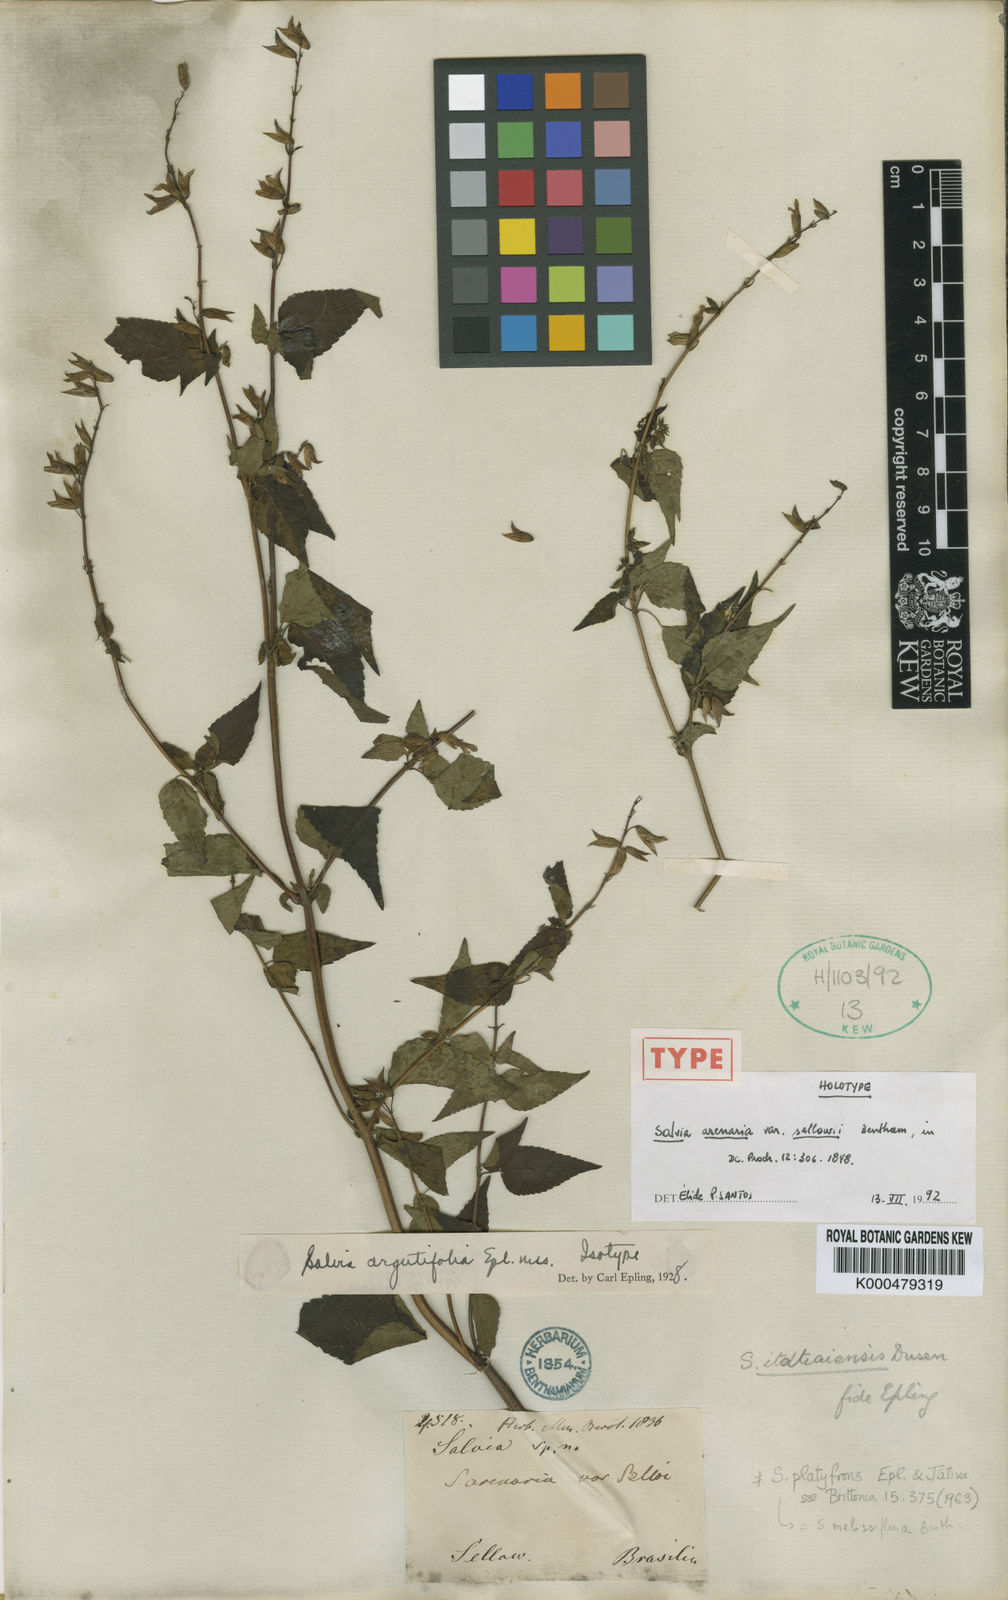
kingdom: Plantae
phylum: Tracheophyta
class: Magnoliopsida
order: Lamiales
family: Lamiaceae
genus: Salvia
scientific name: Salvia arenaria
